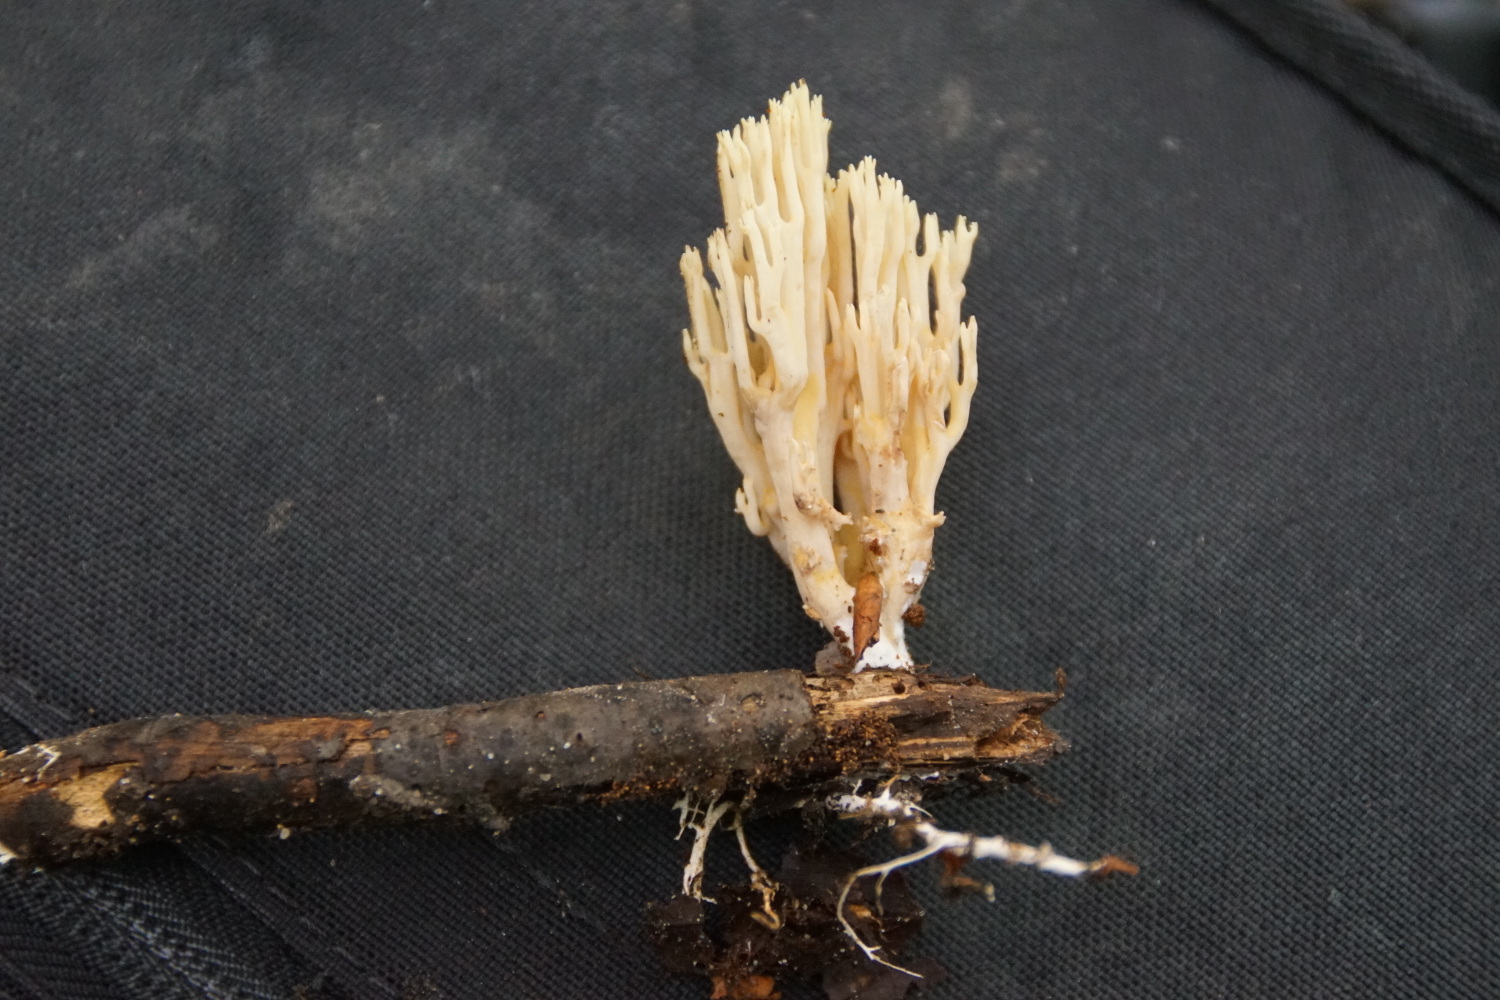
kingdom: Fungi
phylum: Basidiomycota
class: Agaricomycetes
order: Gomphales
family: Gomphaceae
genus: Ramaria
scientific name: Ramaria stricta
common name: rank koralsvamp
